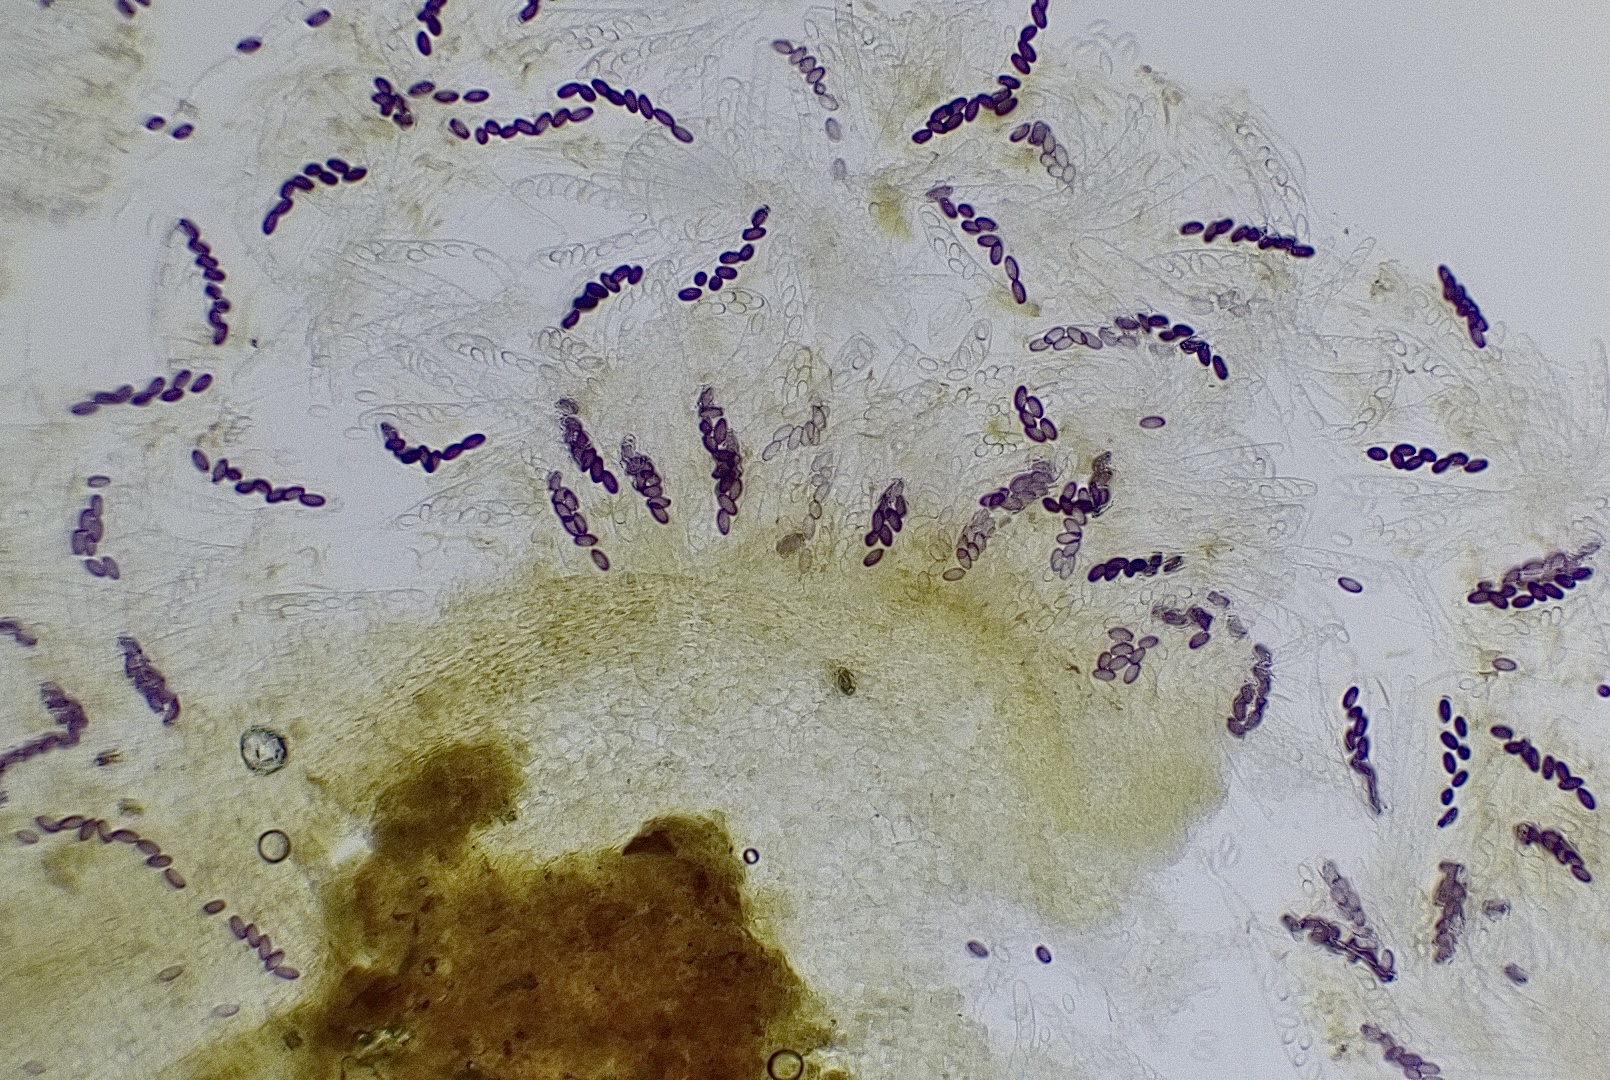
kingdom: Fungi
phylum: Ascomycota
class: Pezizomycetes
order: Pezizales
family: Ascobolaceae
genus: Ascobolus
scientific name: Ascobolus
